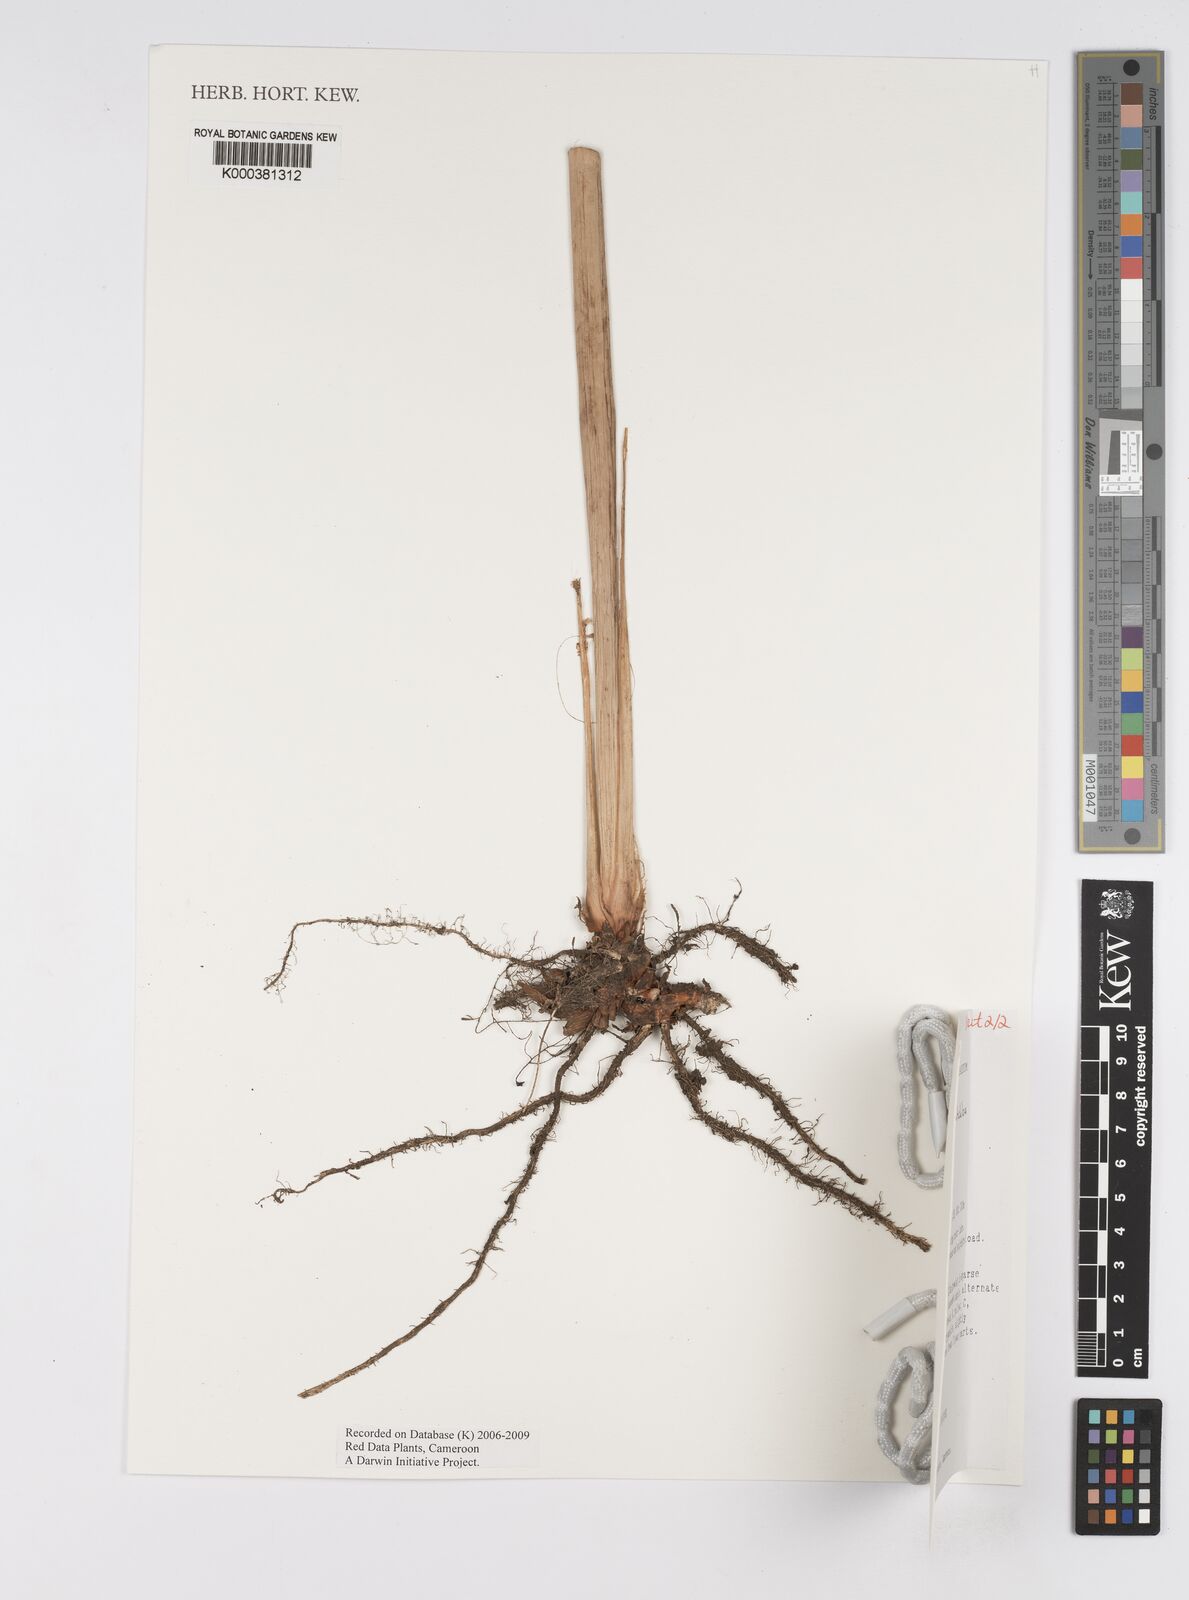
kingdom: Plantae
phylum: Tracheophyta
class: Liliopsida
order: Zingiberales
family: Marantaceae
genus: Marantochloa
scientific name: Marantochloa filipes
